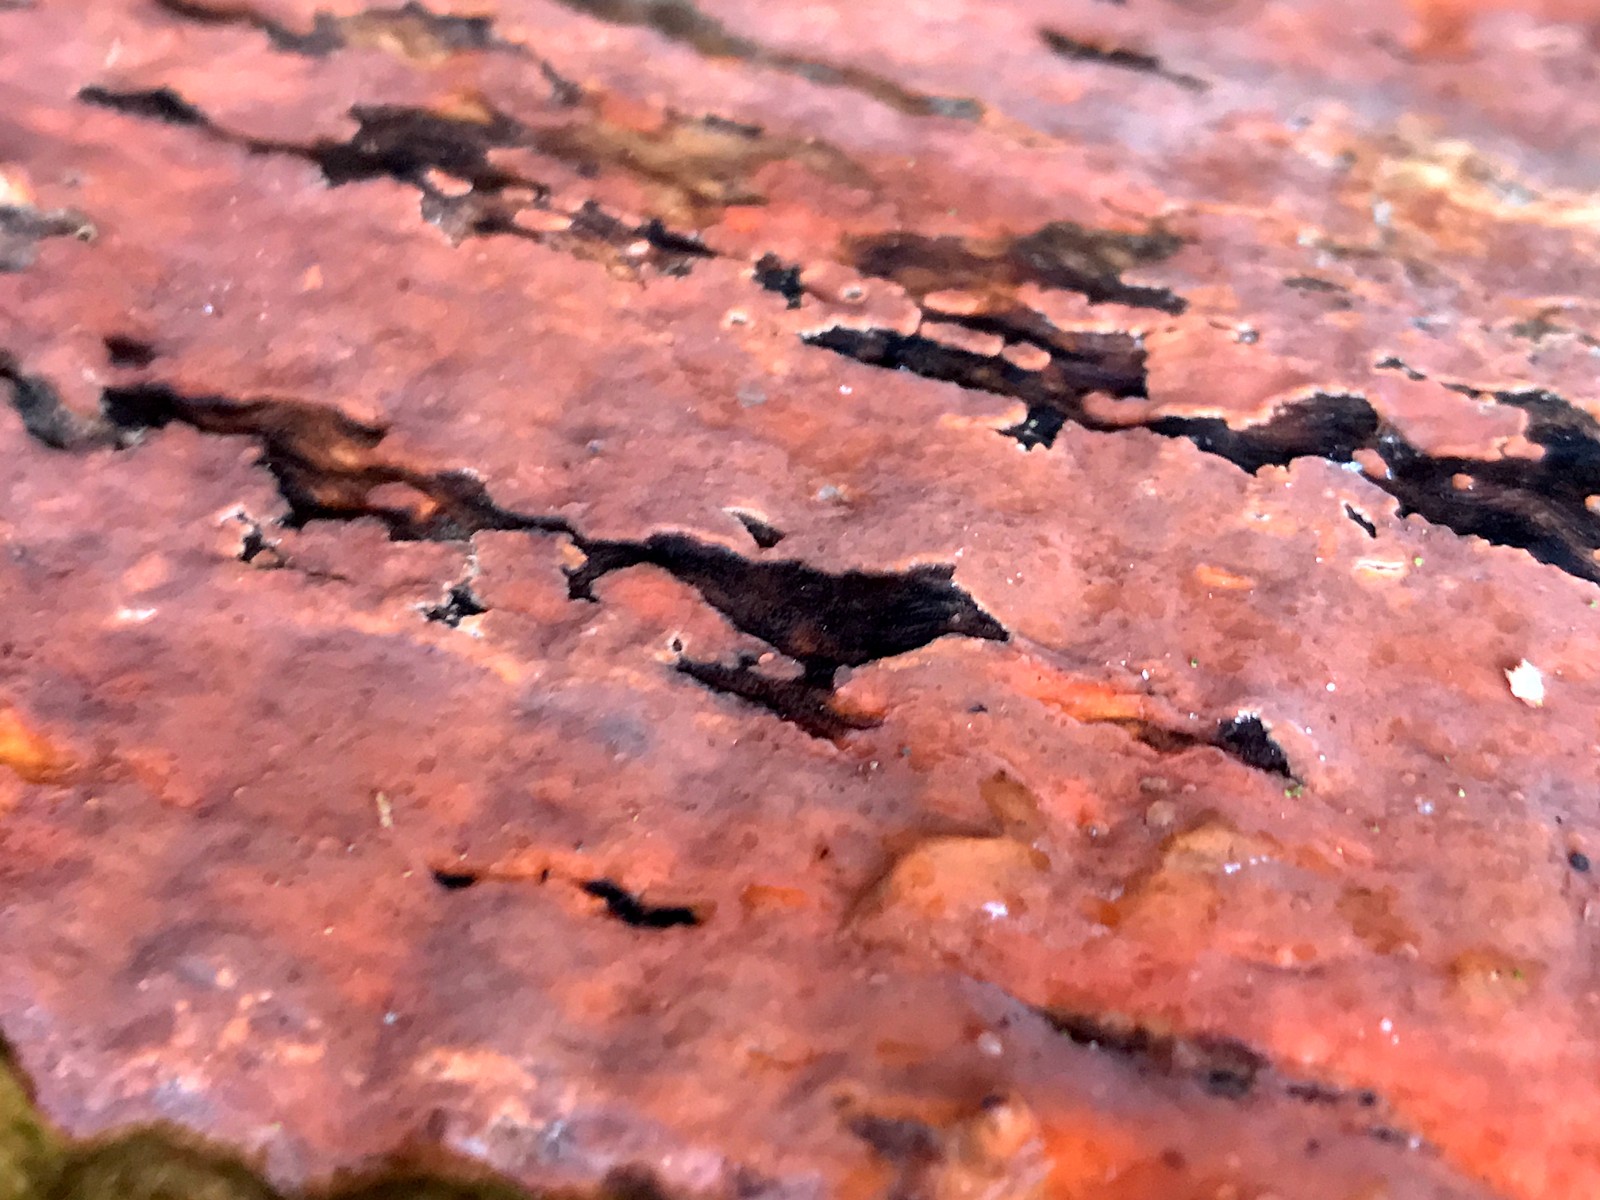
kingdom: Fungi
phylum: Basidiomycota
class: Agaricomycetes
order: Russulales
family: Peniophoraceae
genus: Peniophora
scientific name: Peniophora incarnata
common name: laksefarvet voksskind
